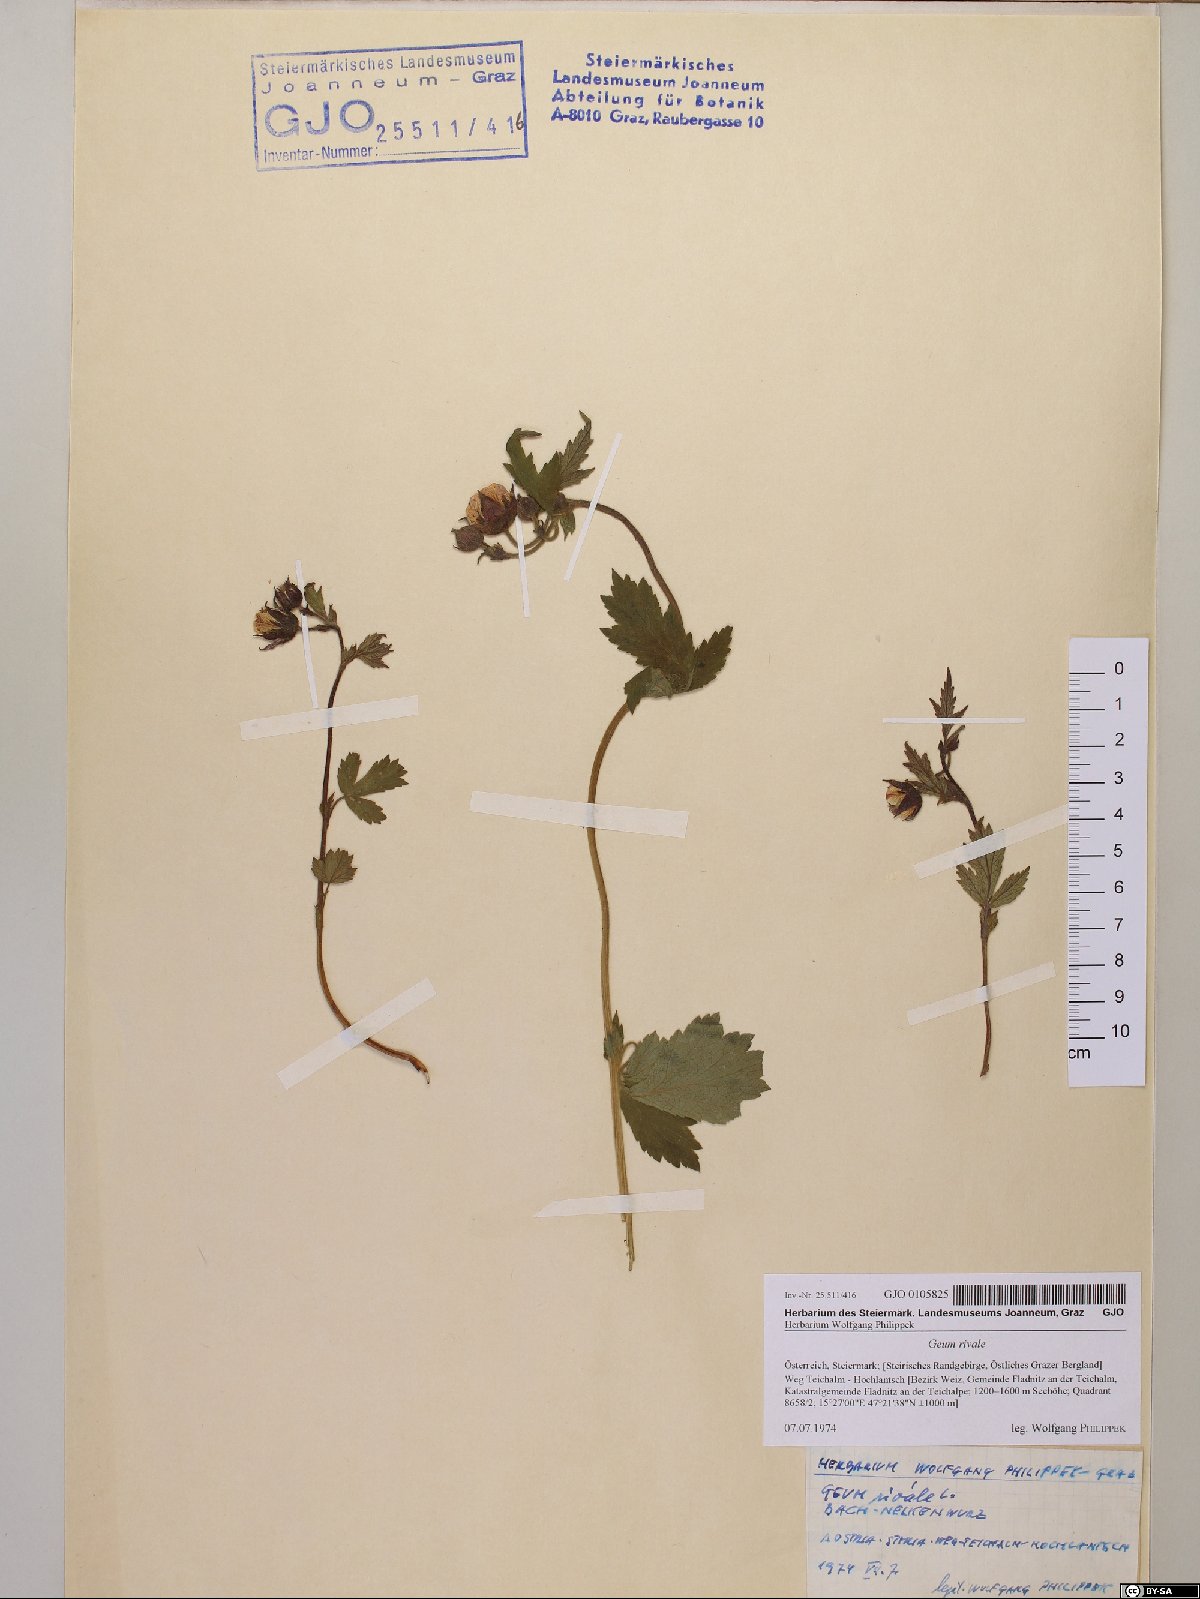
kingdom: Plantae
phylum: Tracheophyta
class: Magnoliopsida
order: Rosales
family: Rosaceae
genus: Geum
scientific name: Geum rivale
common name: Water avens
